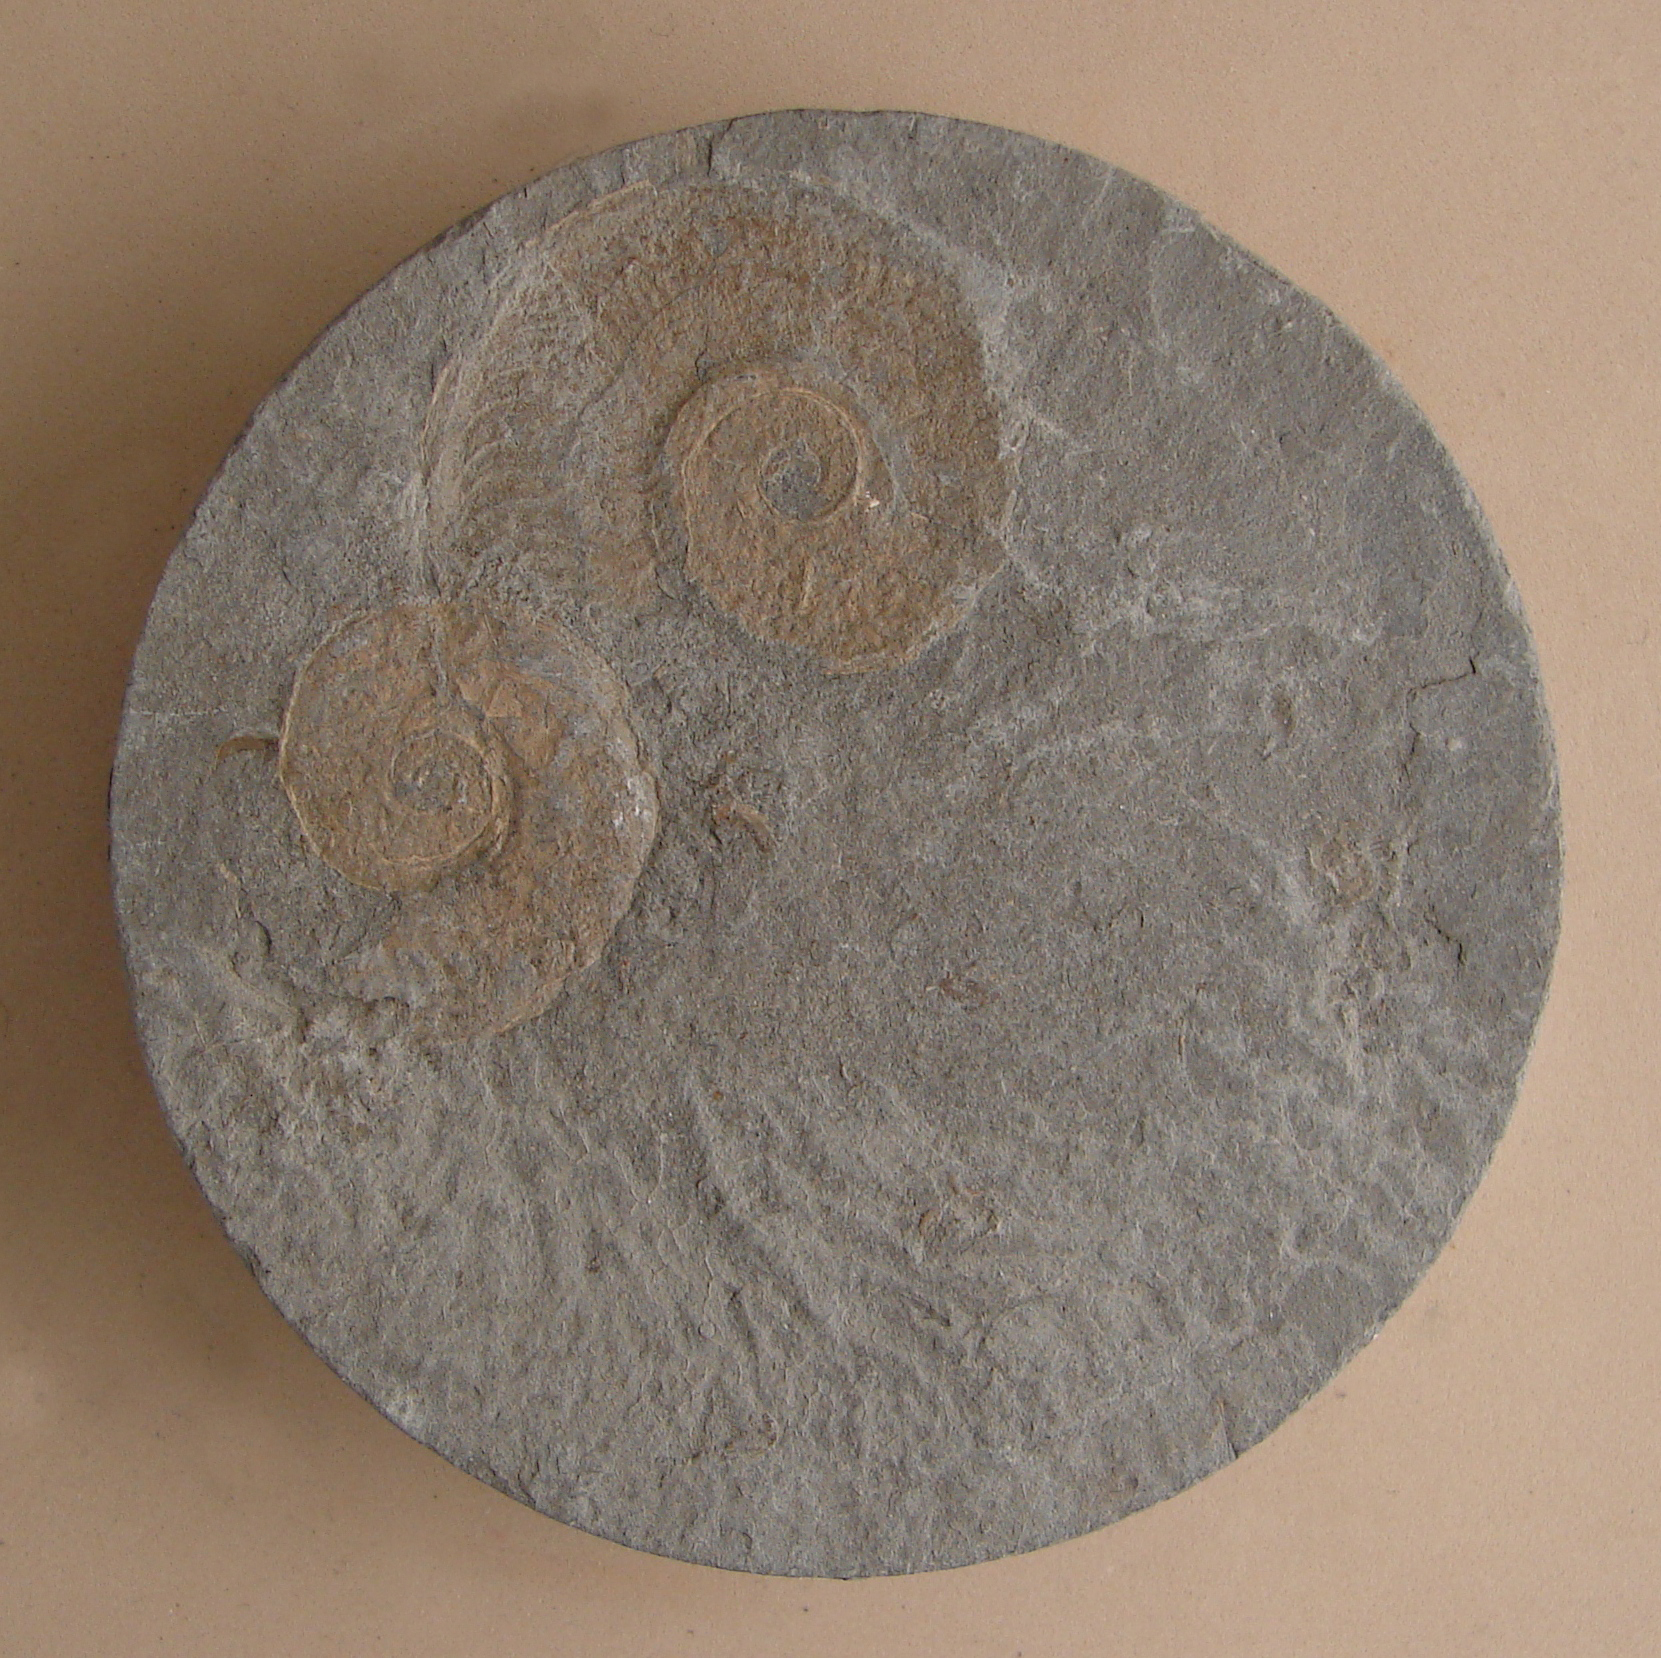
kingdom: Animalia
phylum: Mollusca
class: Cephalopoda
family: Hildoceratidae
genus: Hildaites
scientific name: Hildaites levisoni
